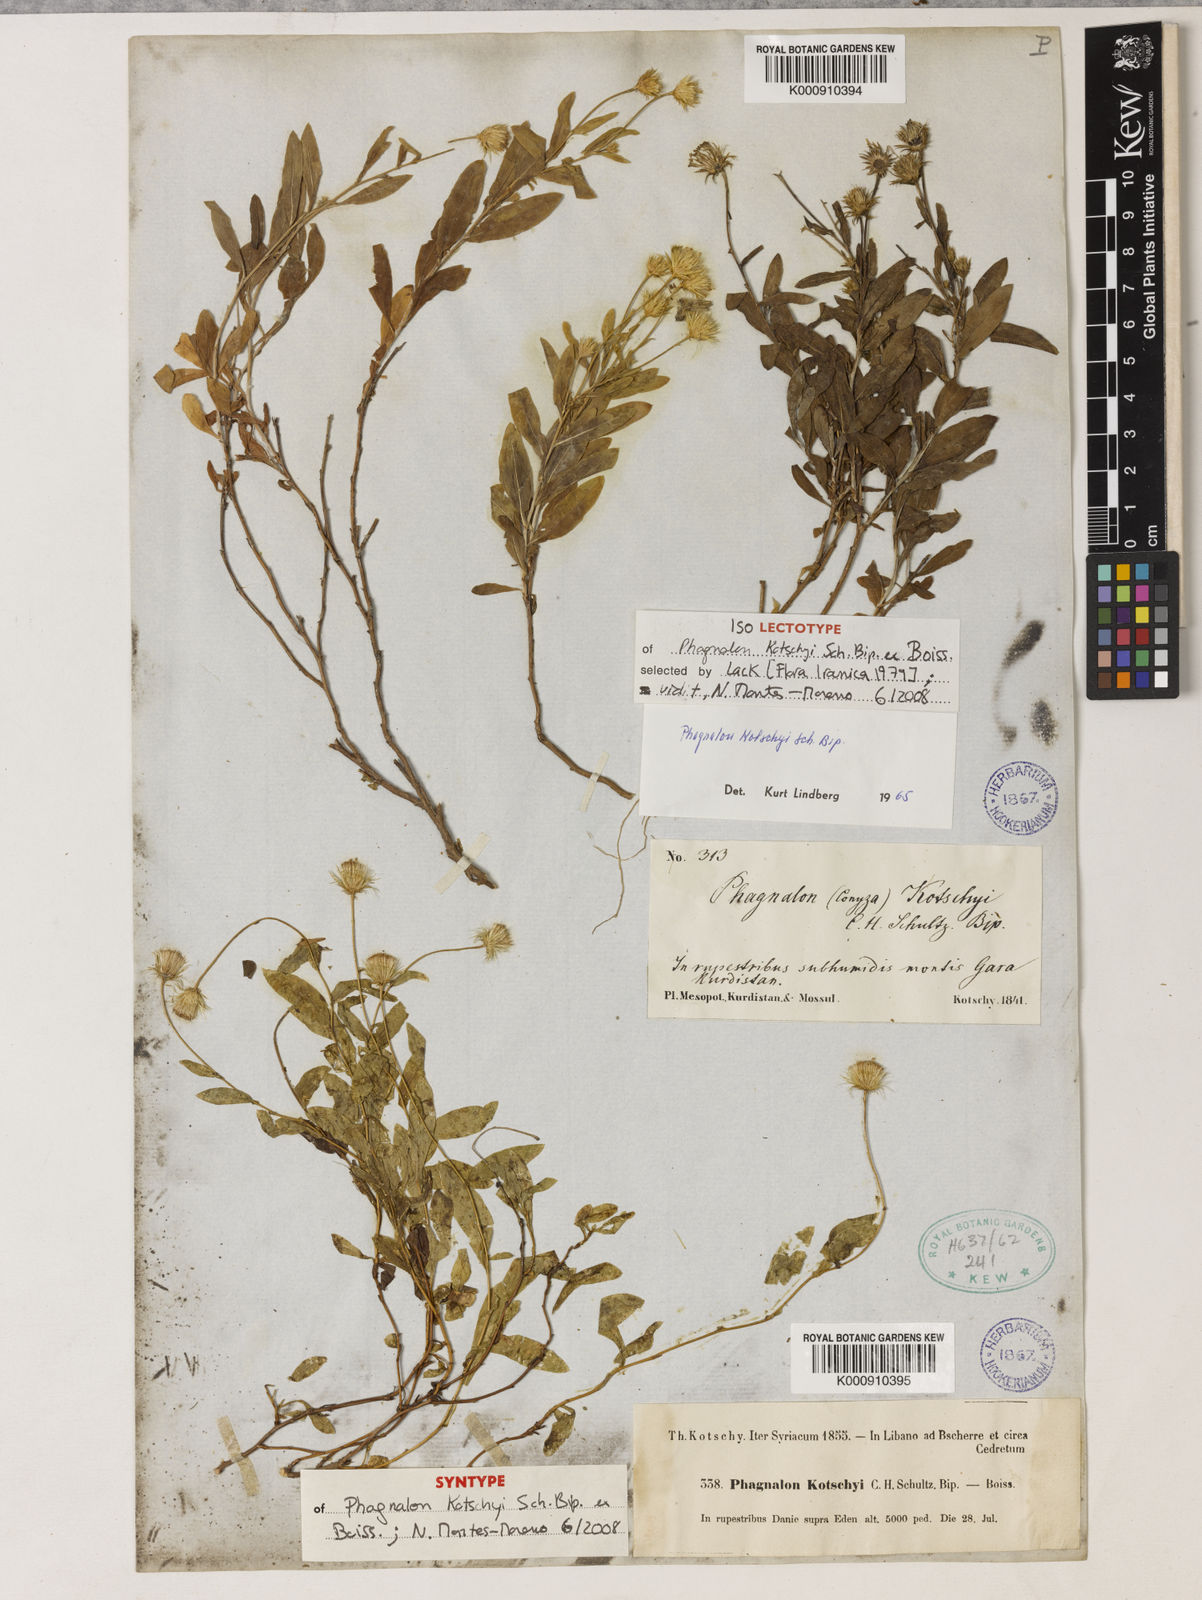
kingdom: Plantae
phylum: Tracheophyta
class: Magnoliopsida
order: Asterales
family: Asteraceae
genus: Phagnalon
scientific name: Phagnalon kotschyi
